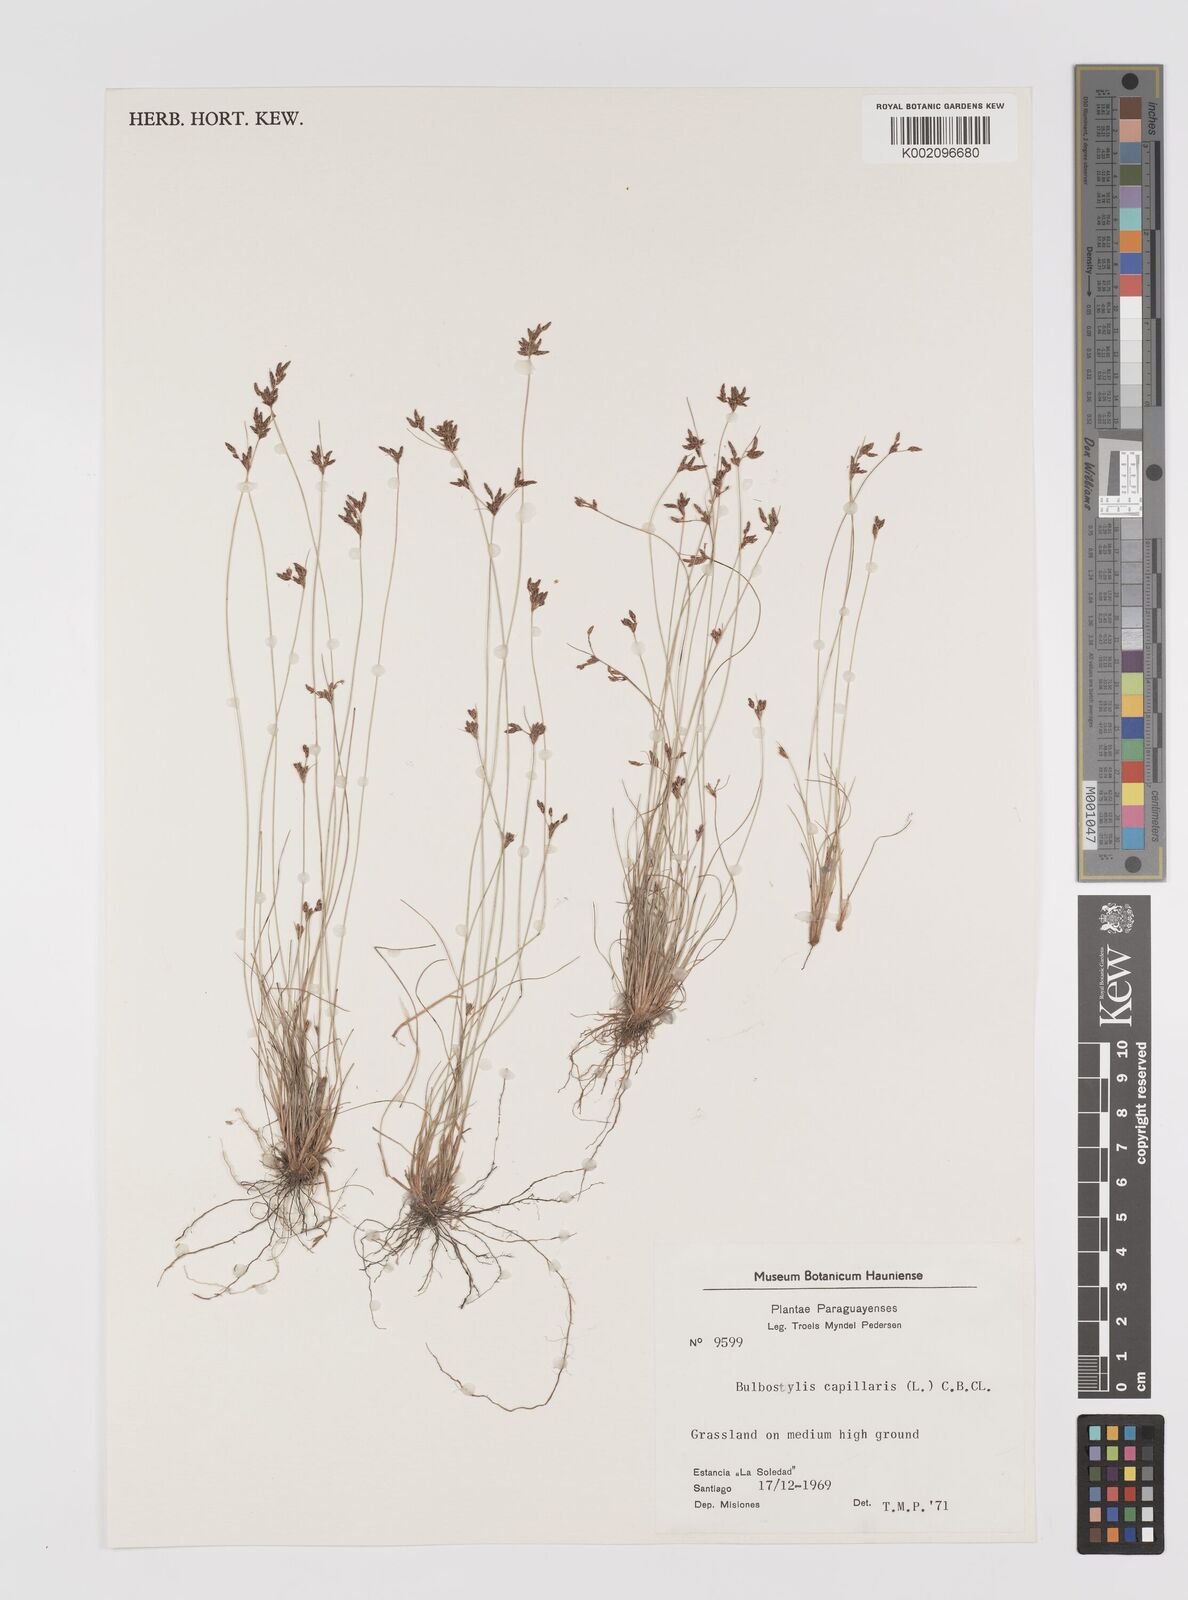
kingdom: Plantae
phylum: Tracheophyta
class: Liliopsida
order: Poales
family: Cyperaceae
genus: Bulbostylis
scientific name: Bulbostylis capillaris
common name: Densetuft hairsedge
